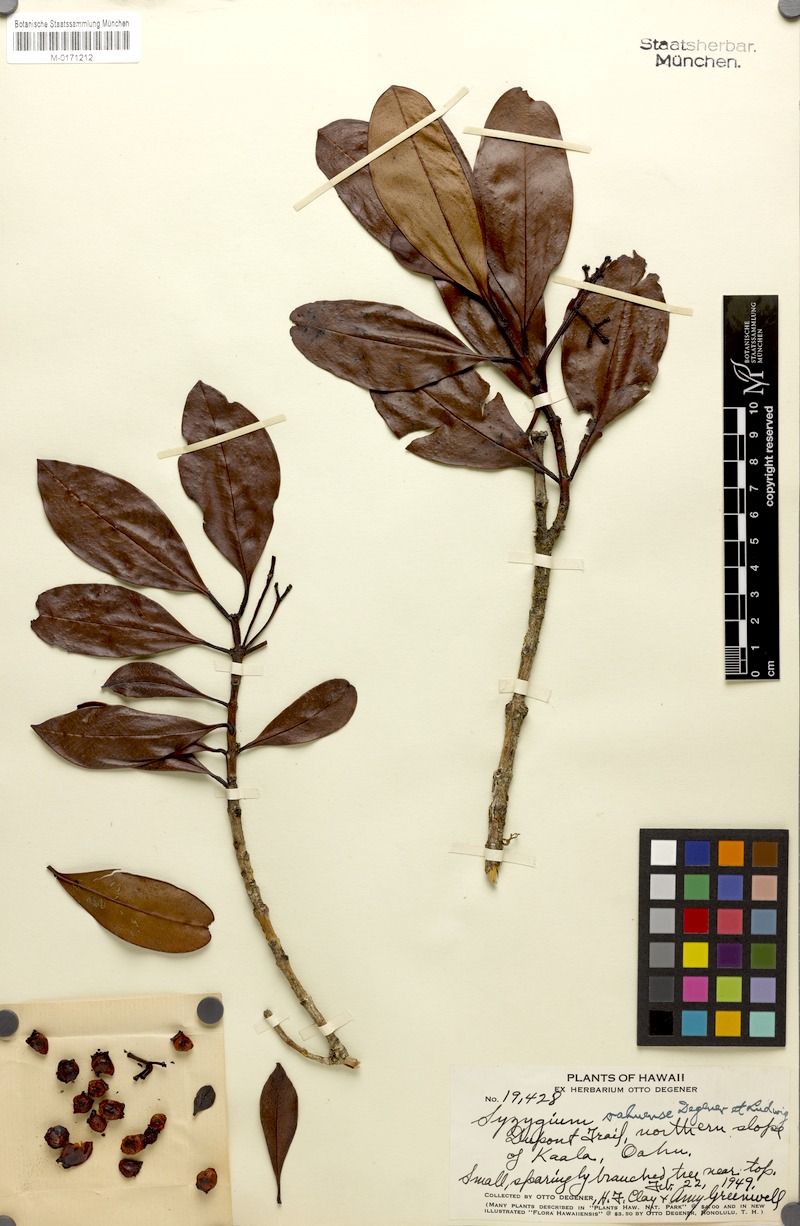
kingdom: Plantae
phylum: Tracheophyta
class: Magnoliopsida
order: Myrtales
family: Myrtaceae
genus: Syzygium
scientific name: Syzygium sandwicense
